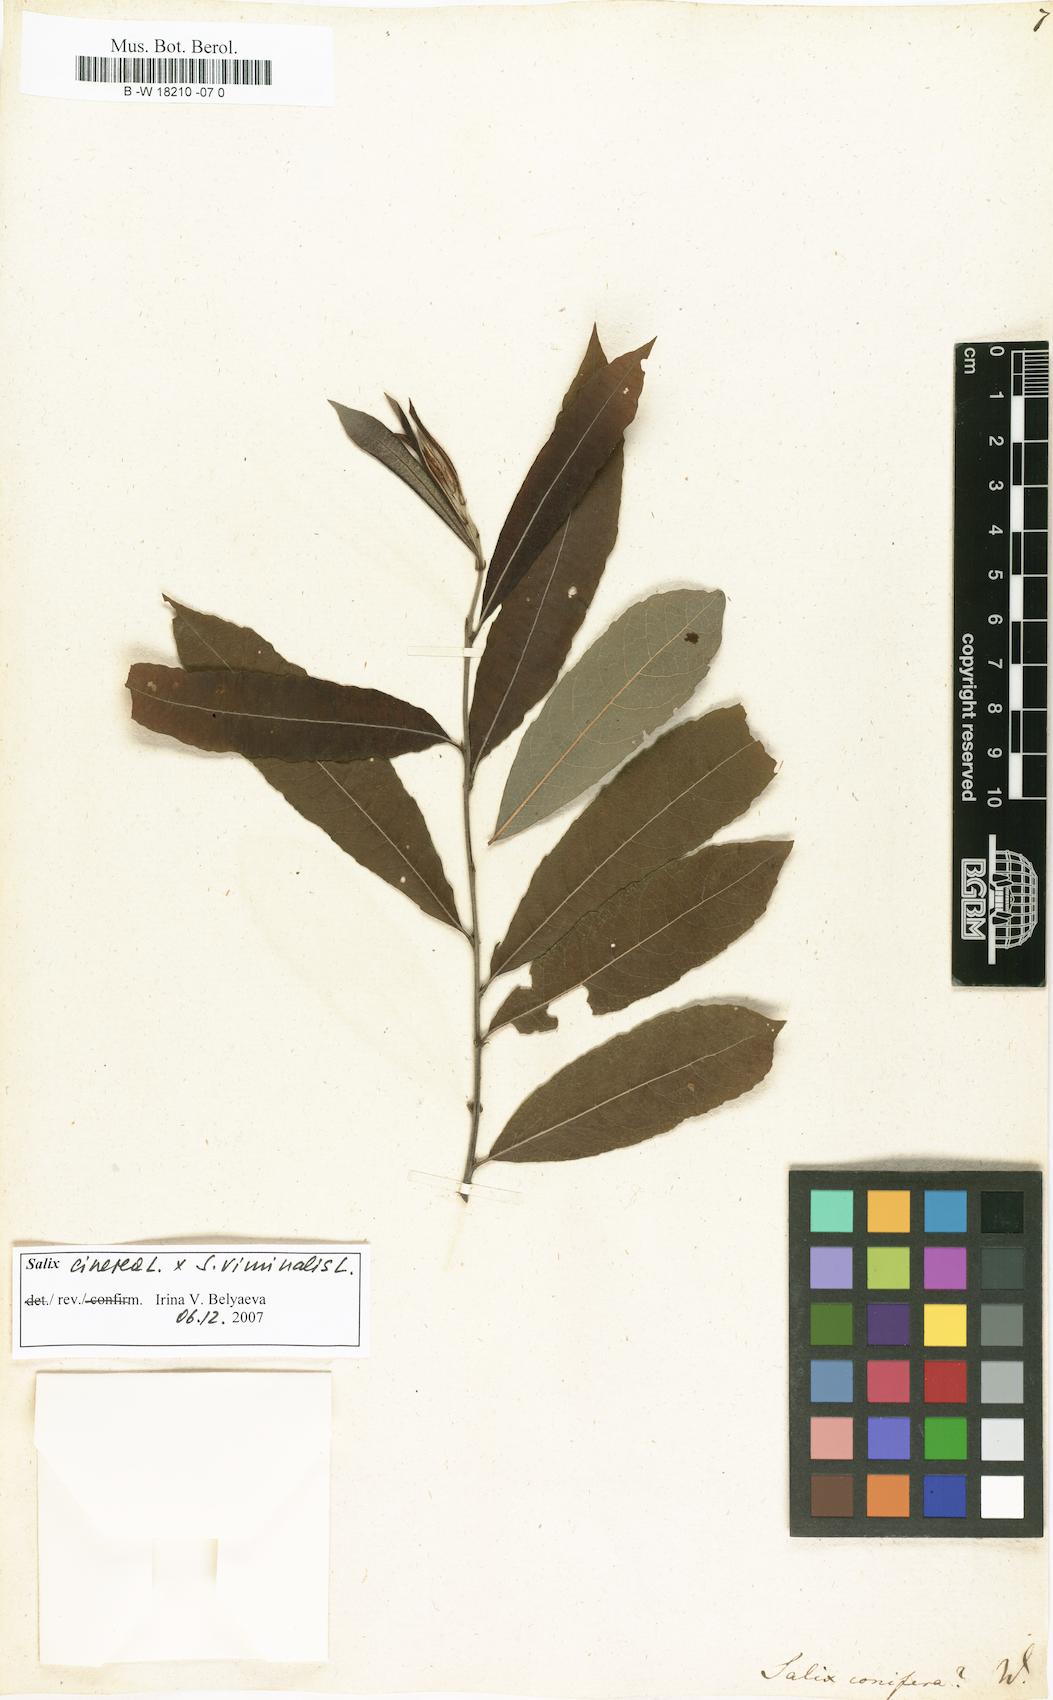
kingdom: Plantae
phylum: Tracheophyta
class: Magnoliopsida
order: Malpighiales
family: Salicaceae
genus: Salix
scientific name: Salix conifera
